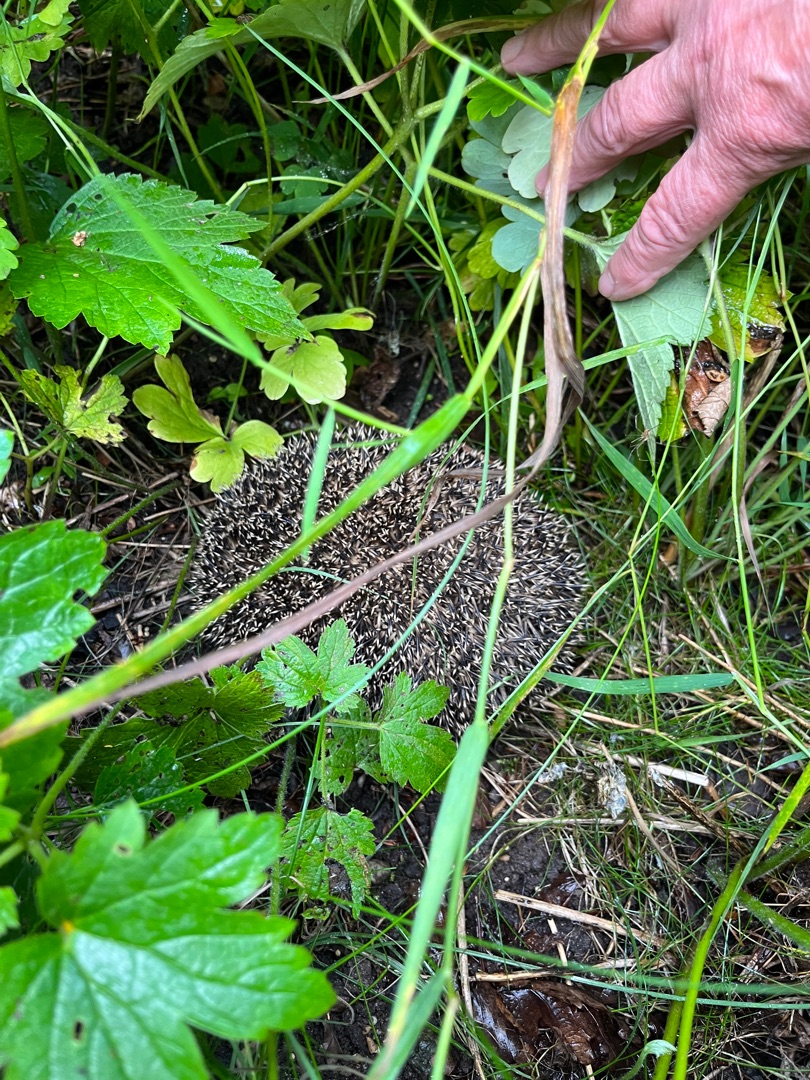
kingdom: Animalia
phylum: Chordata
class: Mammalia
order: Erinaceomorpha
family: Erinaceidae
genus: Erinaceus
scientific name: Erinaceus europaeus
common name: Pindsvin
